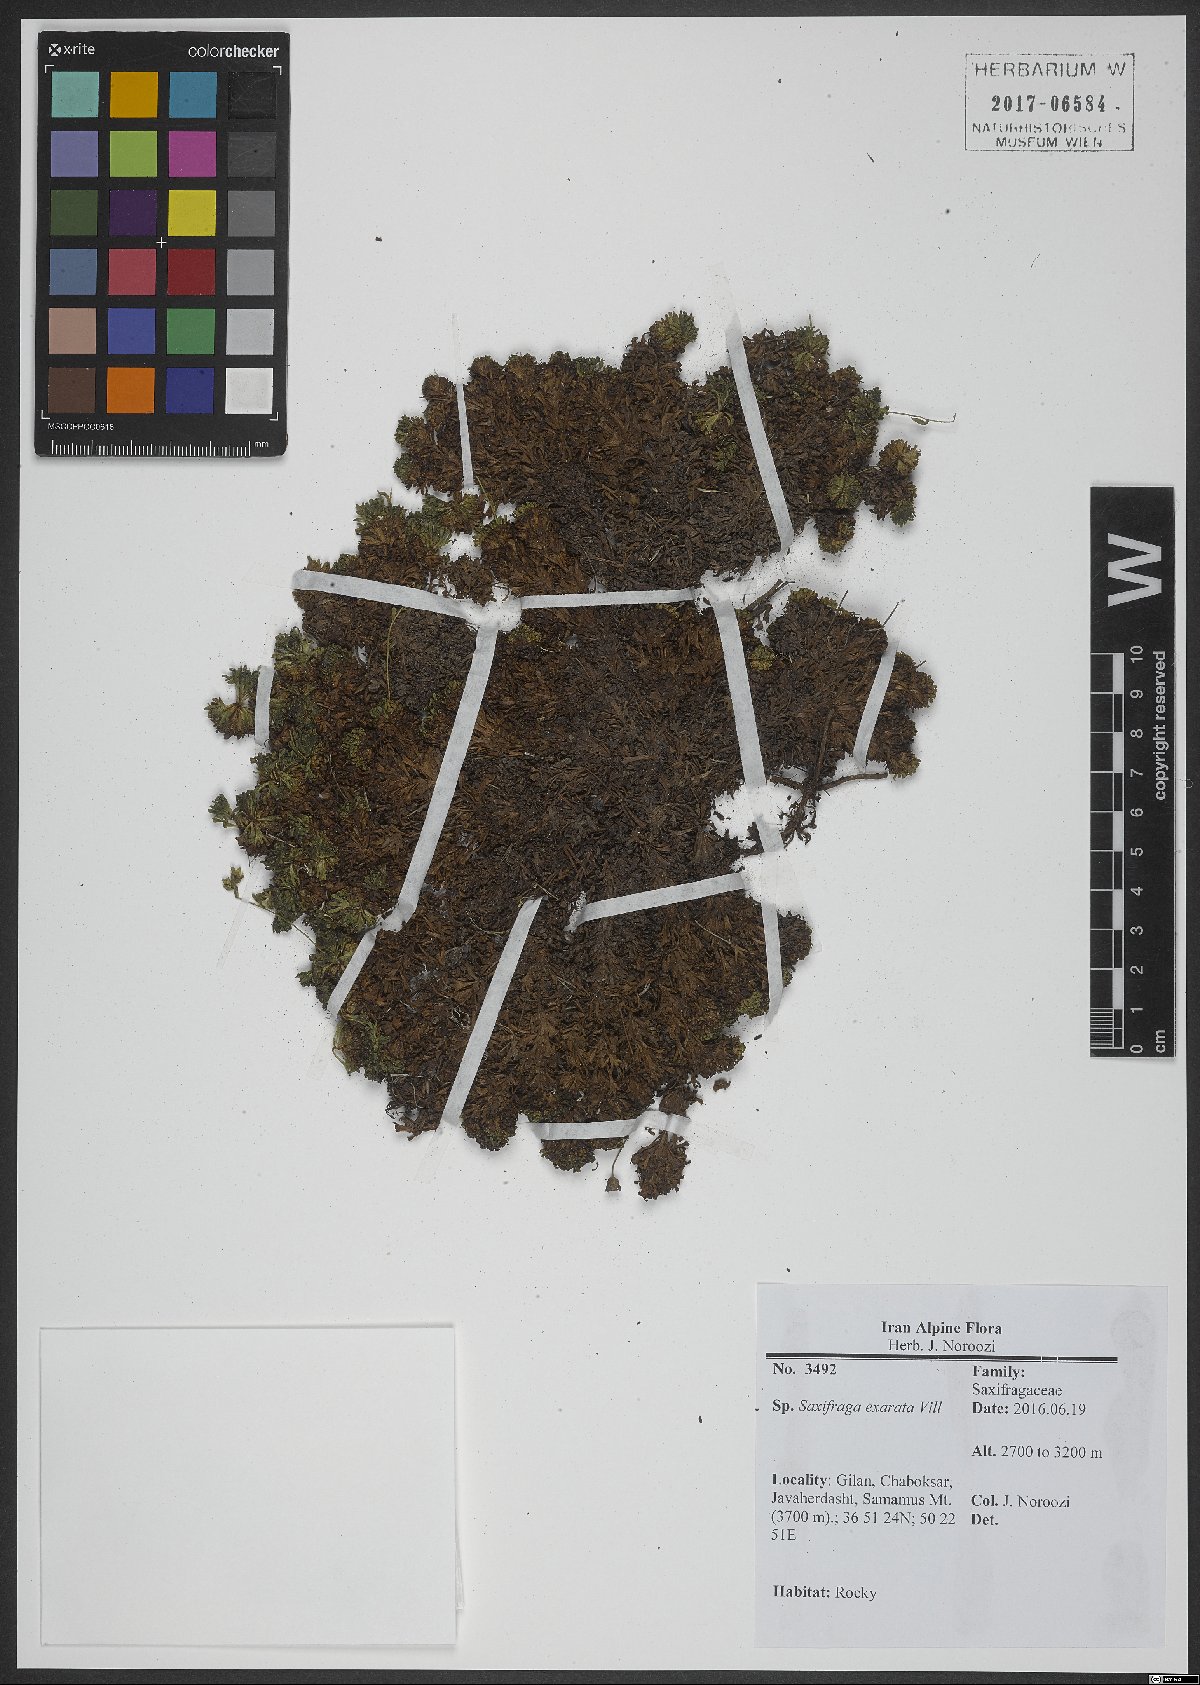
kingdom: Plantae
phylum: Tracheophyta
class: Magnoliopsida
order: Saxifragales
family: Saxifragaceae
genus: Saxifraga
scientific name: Saxifraga exarata
